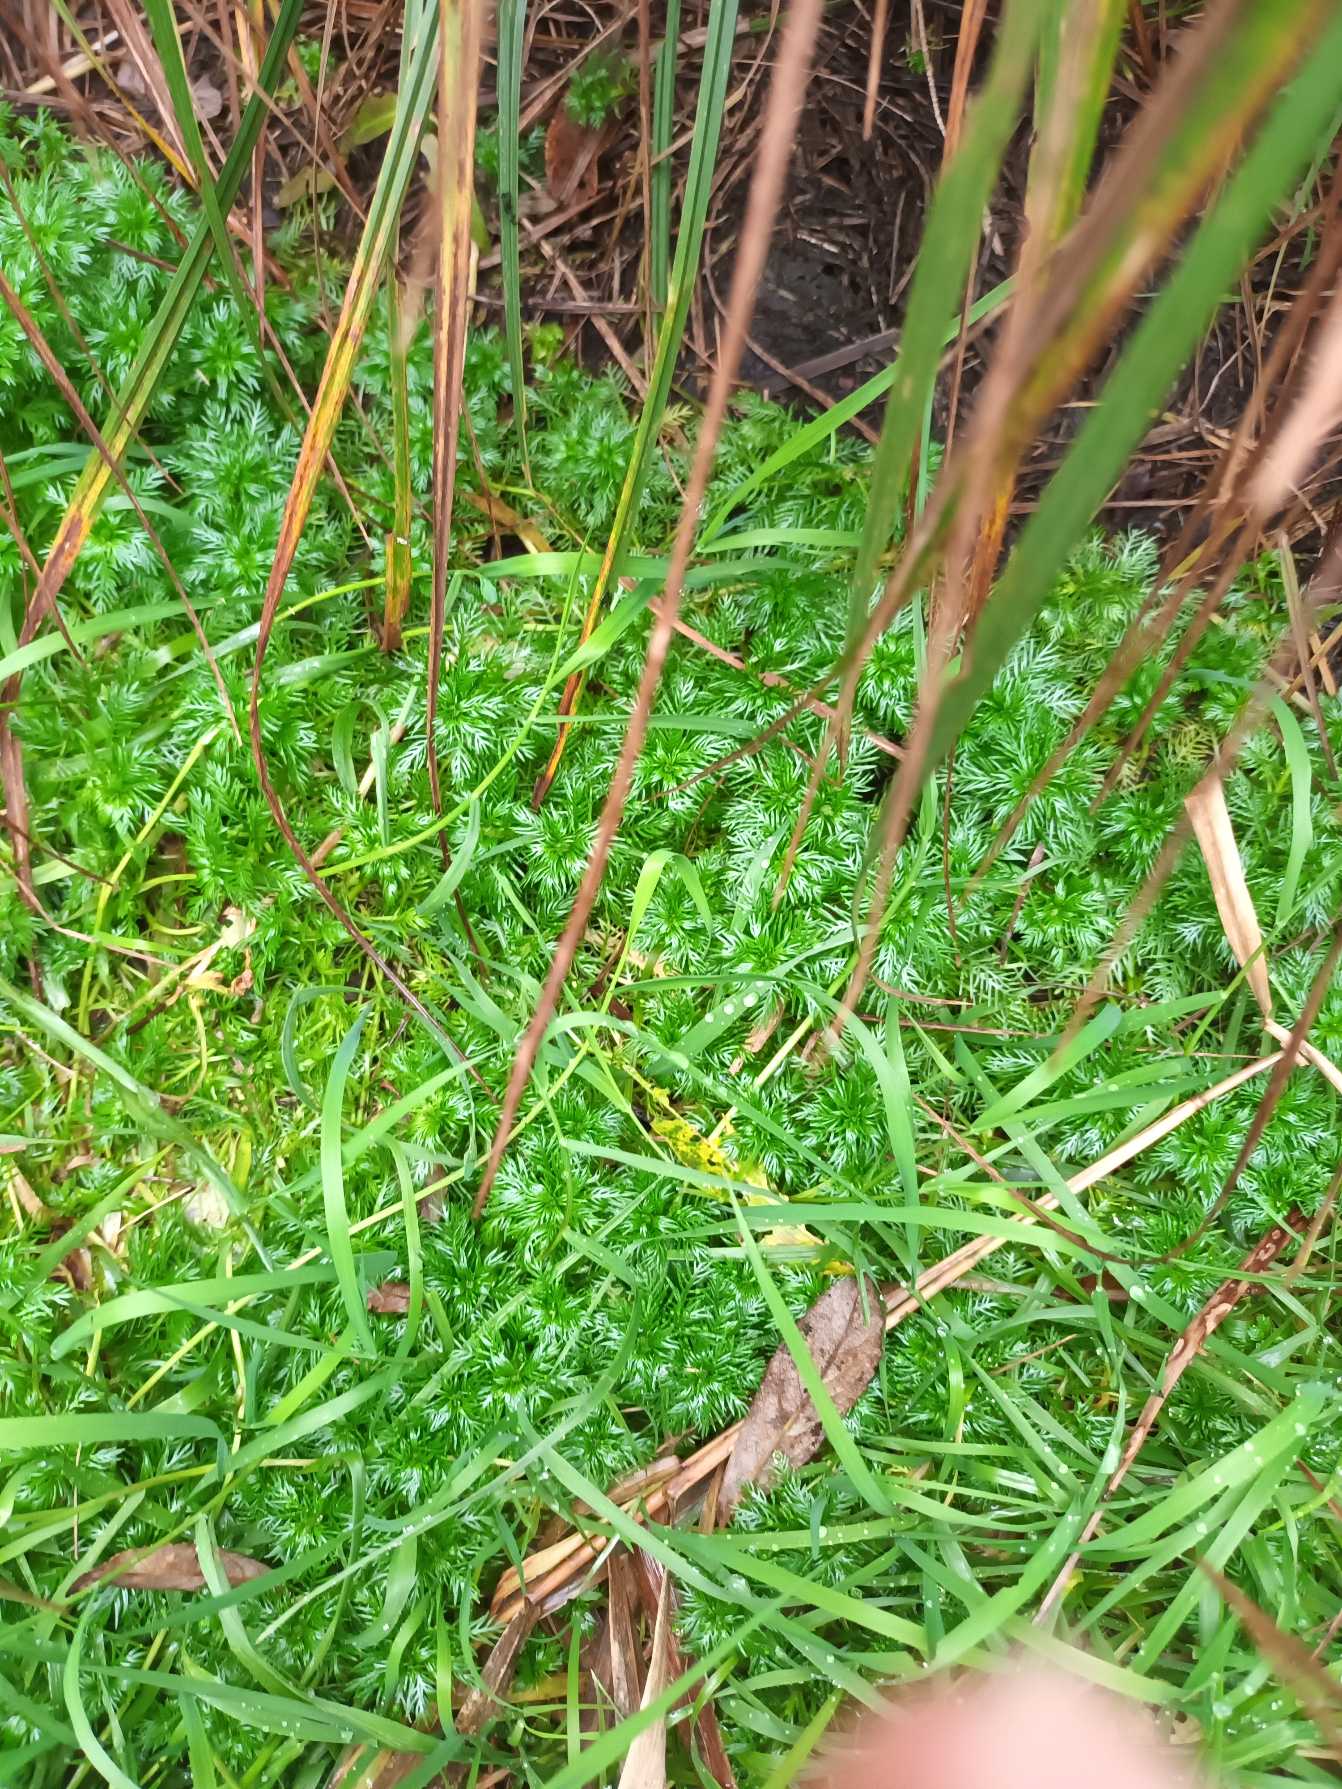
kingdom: Plantae
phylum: Tracheophyta
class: Magnoliopsida
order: Ericales
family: Primulaceae
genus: Hottonia
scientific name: Hottonia palustris
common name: Vandrøllike
